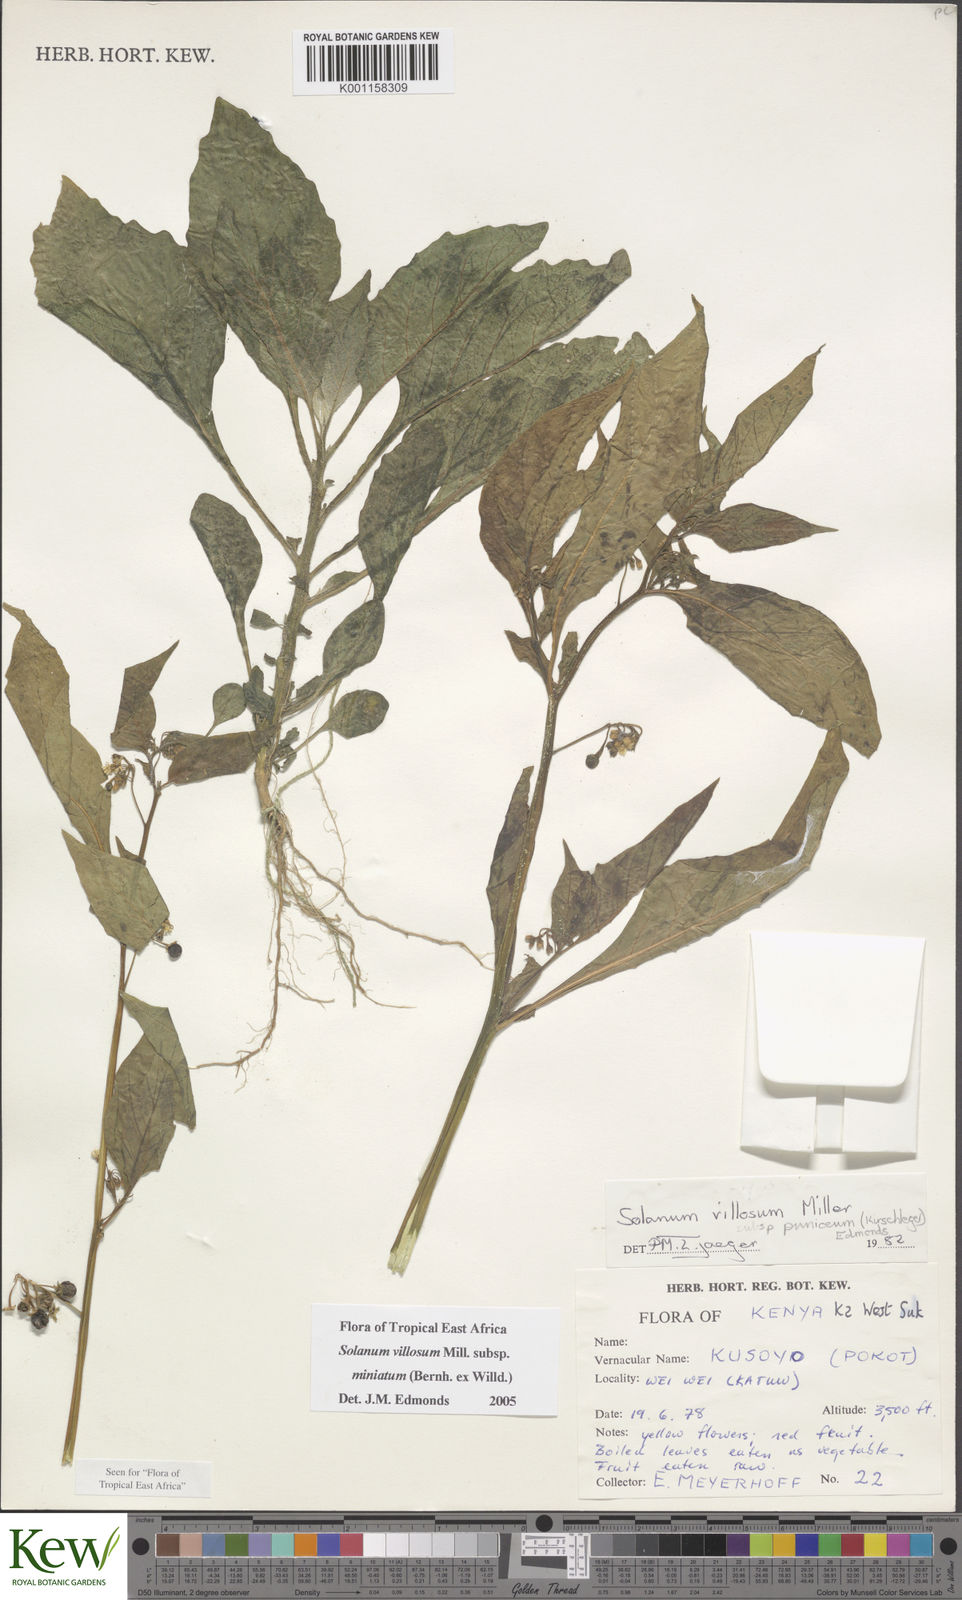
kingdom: Plantae
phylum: Tracheophyta
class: Magnoliopsida
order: Solanales
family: Solanaceae
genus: Solanum
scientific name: Solanum villosum
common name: Red nightshade
